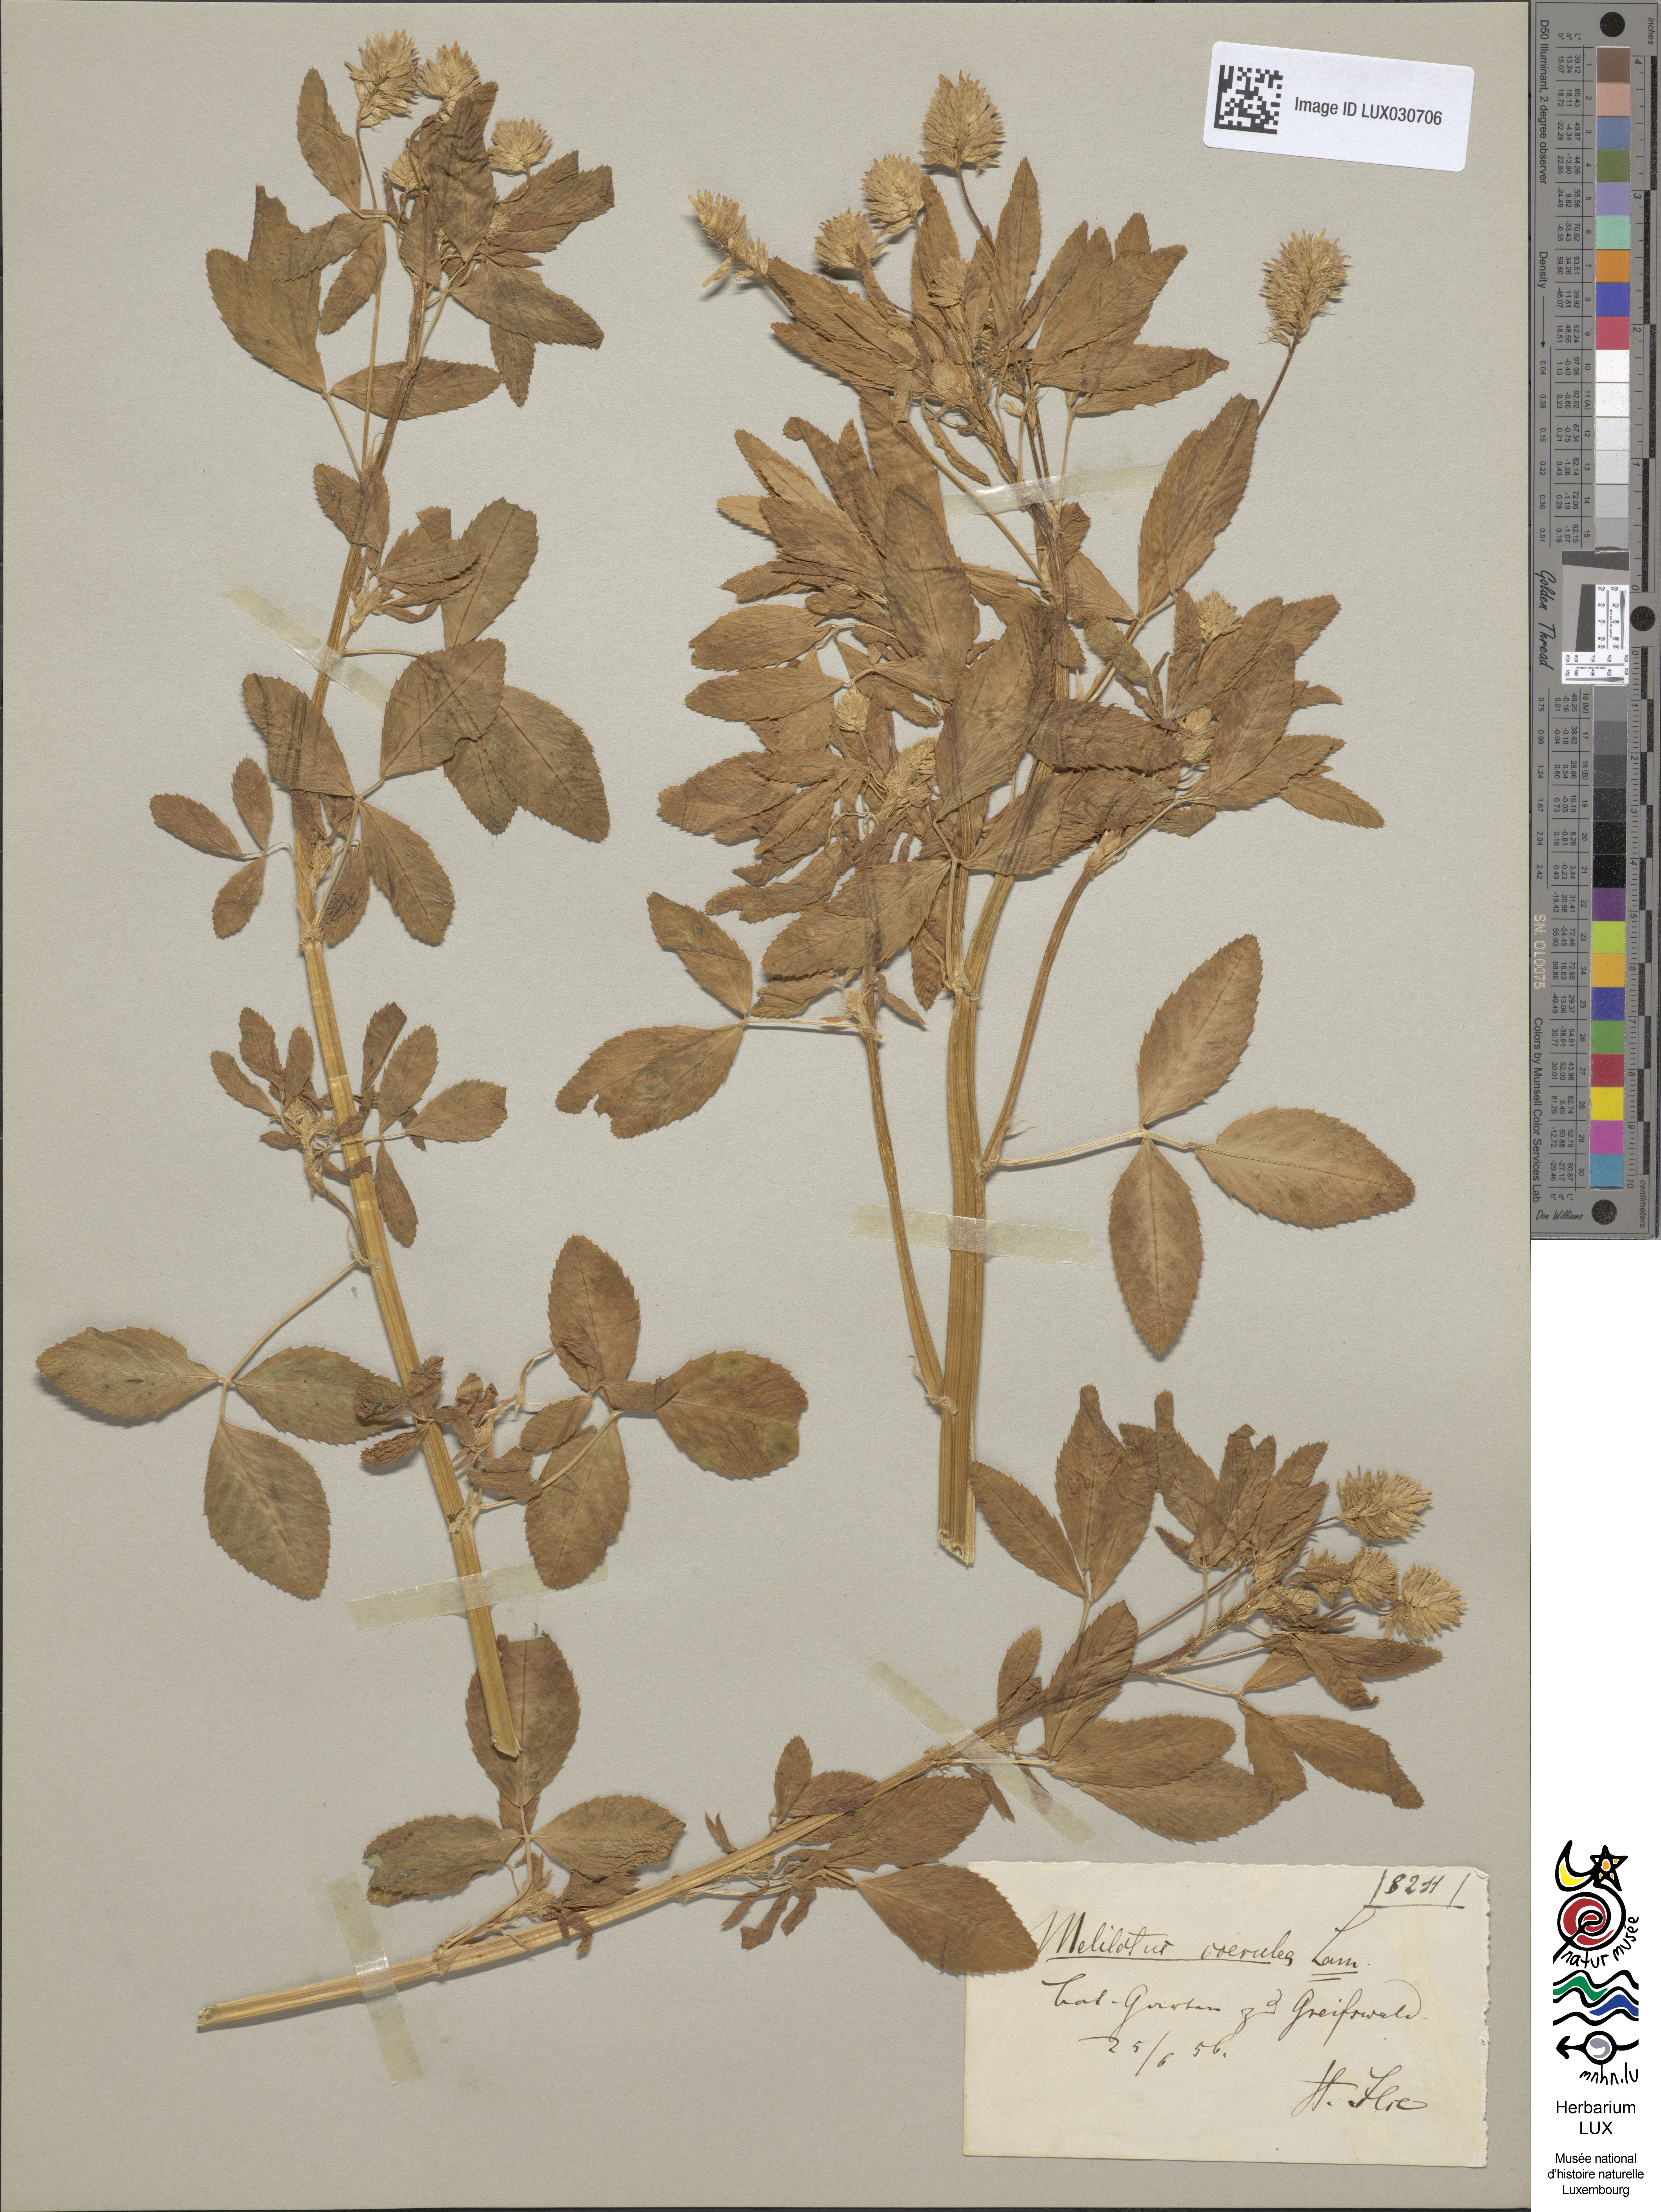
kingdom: Plantae
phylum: Tracheophyta
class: Magnoliopsida
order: Fabales
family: Fabaceae
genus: Trigonella
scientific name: Trigonella caerulea
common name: Blue fenugreek
